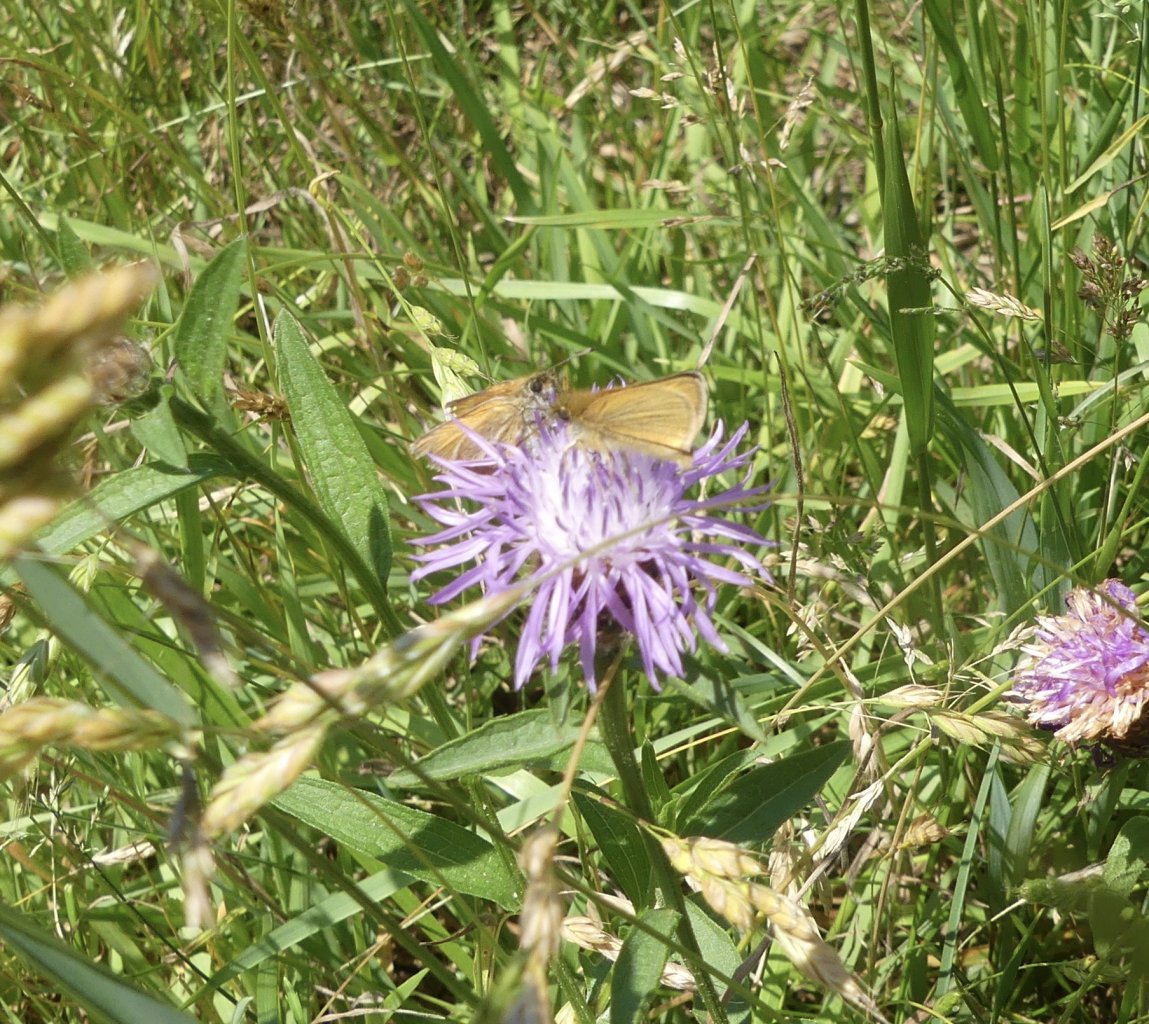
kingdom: Animalia
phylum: Arthropoda
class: Insecta
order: Lepidoptera
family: Hesperiidae
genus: Thymelicus
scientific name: Thymelicus lineola
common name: European Skipper
